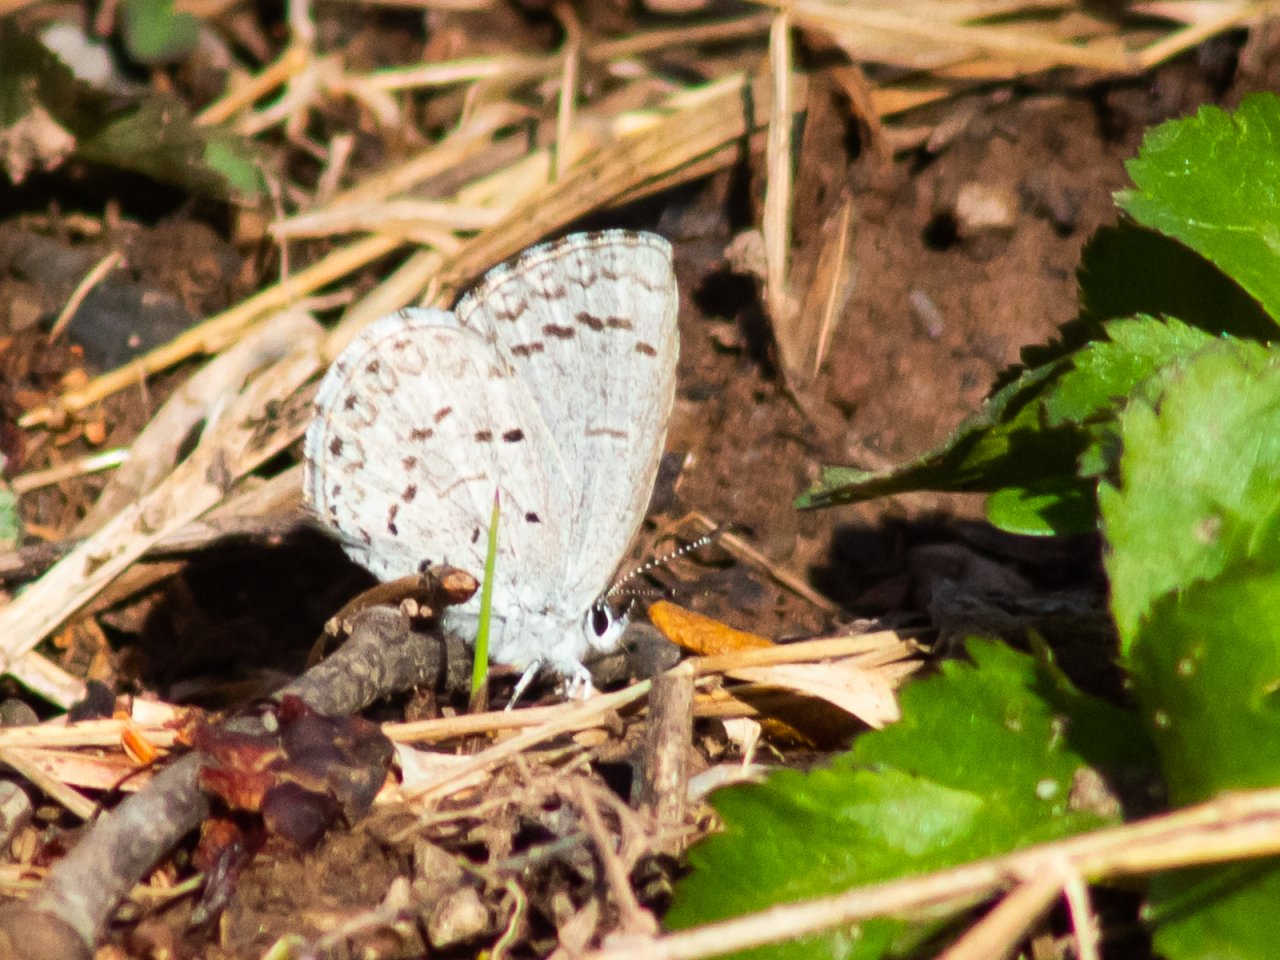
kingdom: Animalia
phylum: Arthropoda
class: Insecta
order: Lepidoptera
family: Lycaenidae
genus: Celastrina
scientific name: Celastrina
